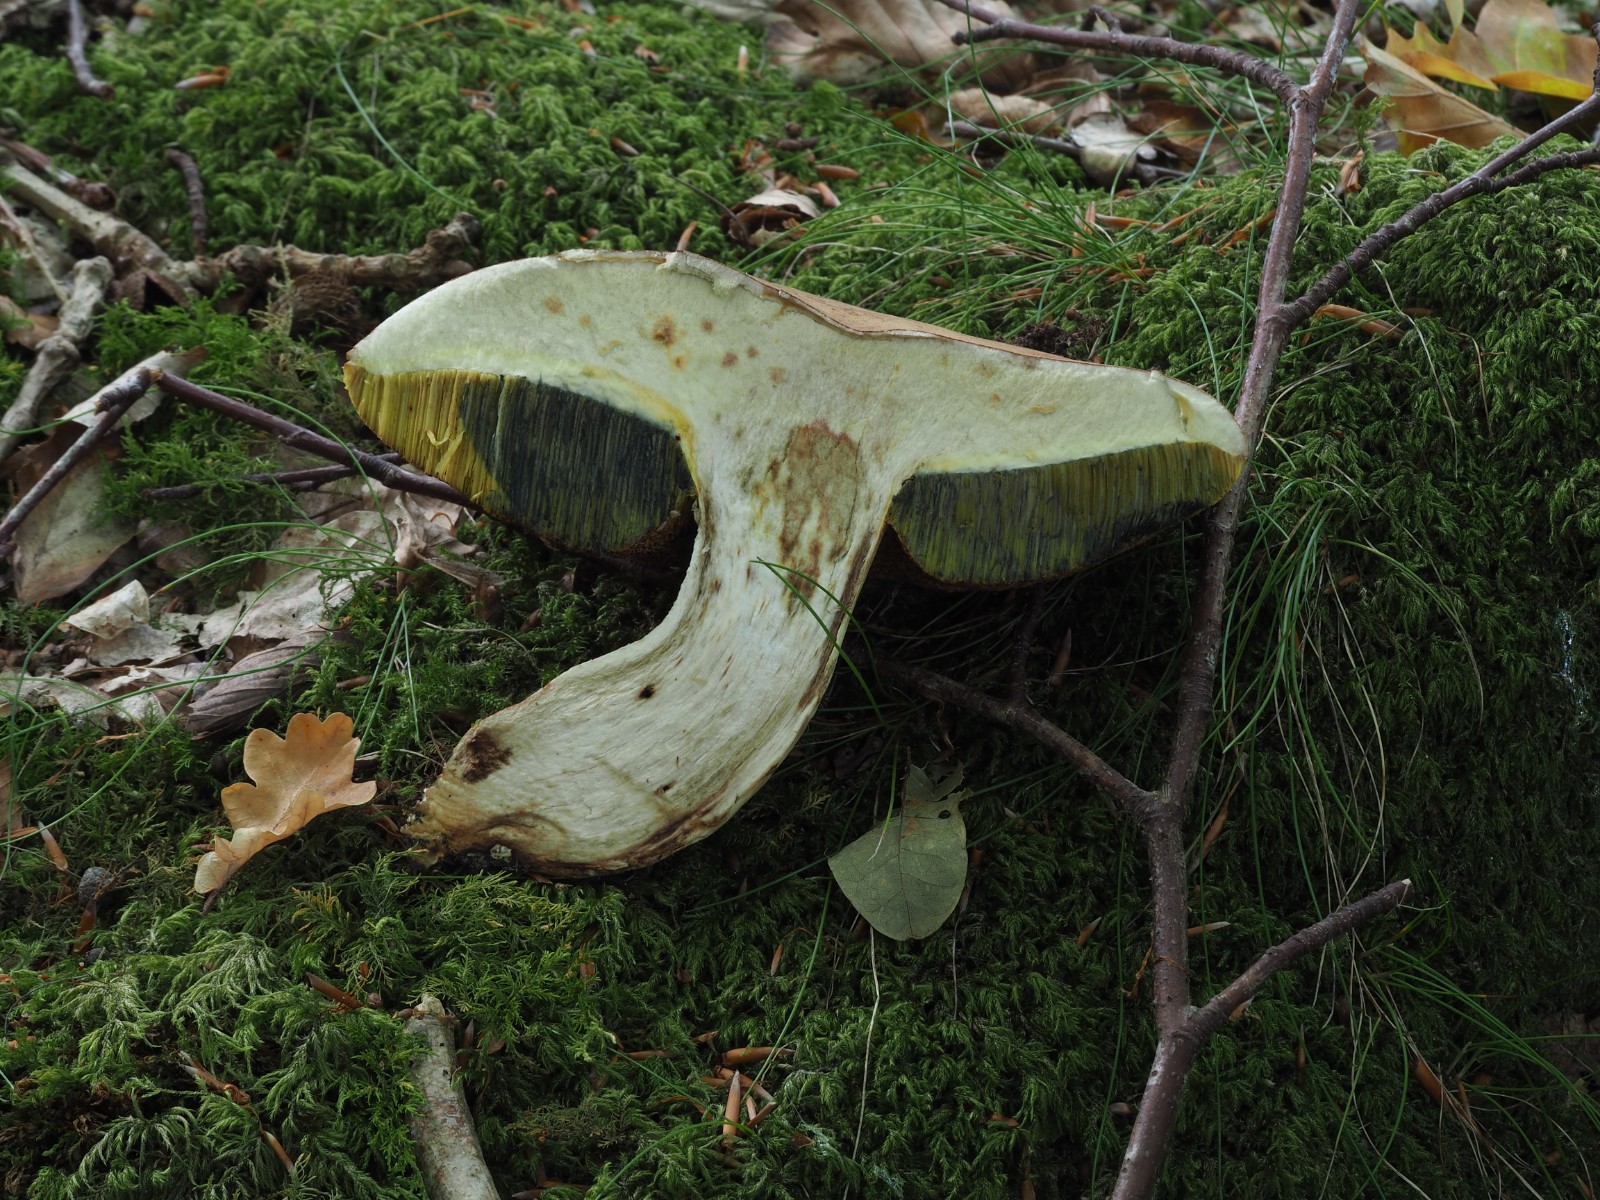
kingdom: Fungi
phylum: Basidiomycota
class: Agaricomycetes
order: Boletales
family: Boletaceae
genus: Butyriboletus
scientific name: Butyriboletus appendiculatus
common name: tenstokket rørhat
